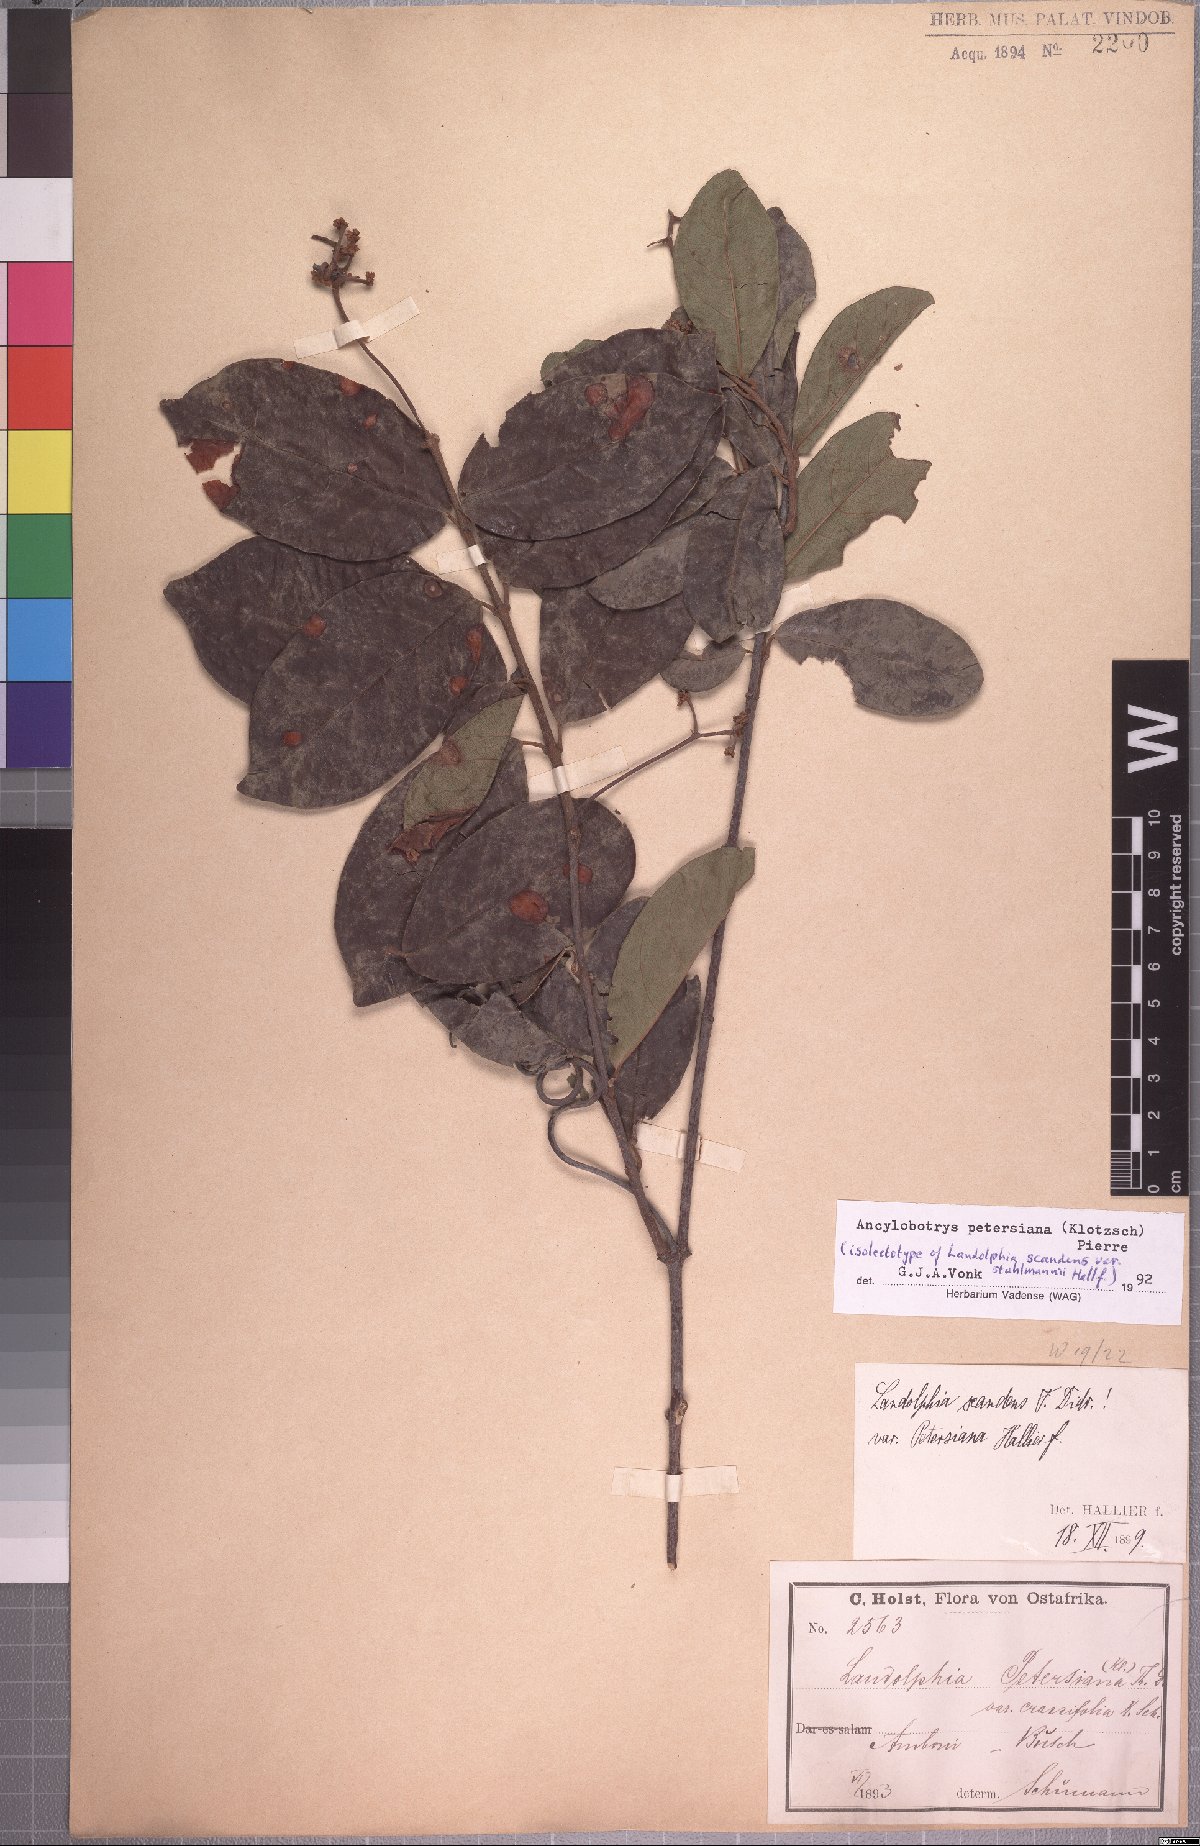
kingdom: Plantae
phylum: Tracheophyta
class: Magnoliopsida
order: Gentianales
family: Apocynaceae
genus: Ancylobotrys
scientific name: Ancylobotrys petersiana
